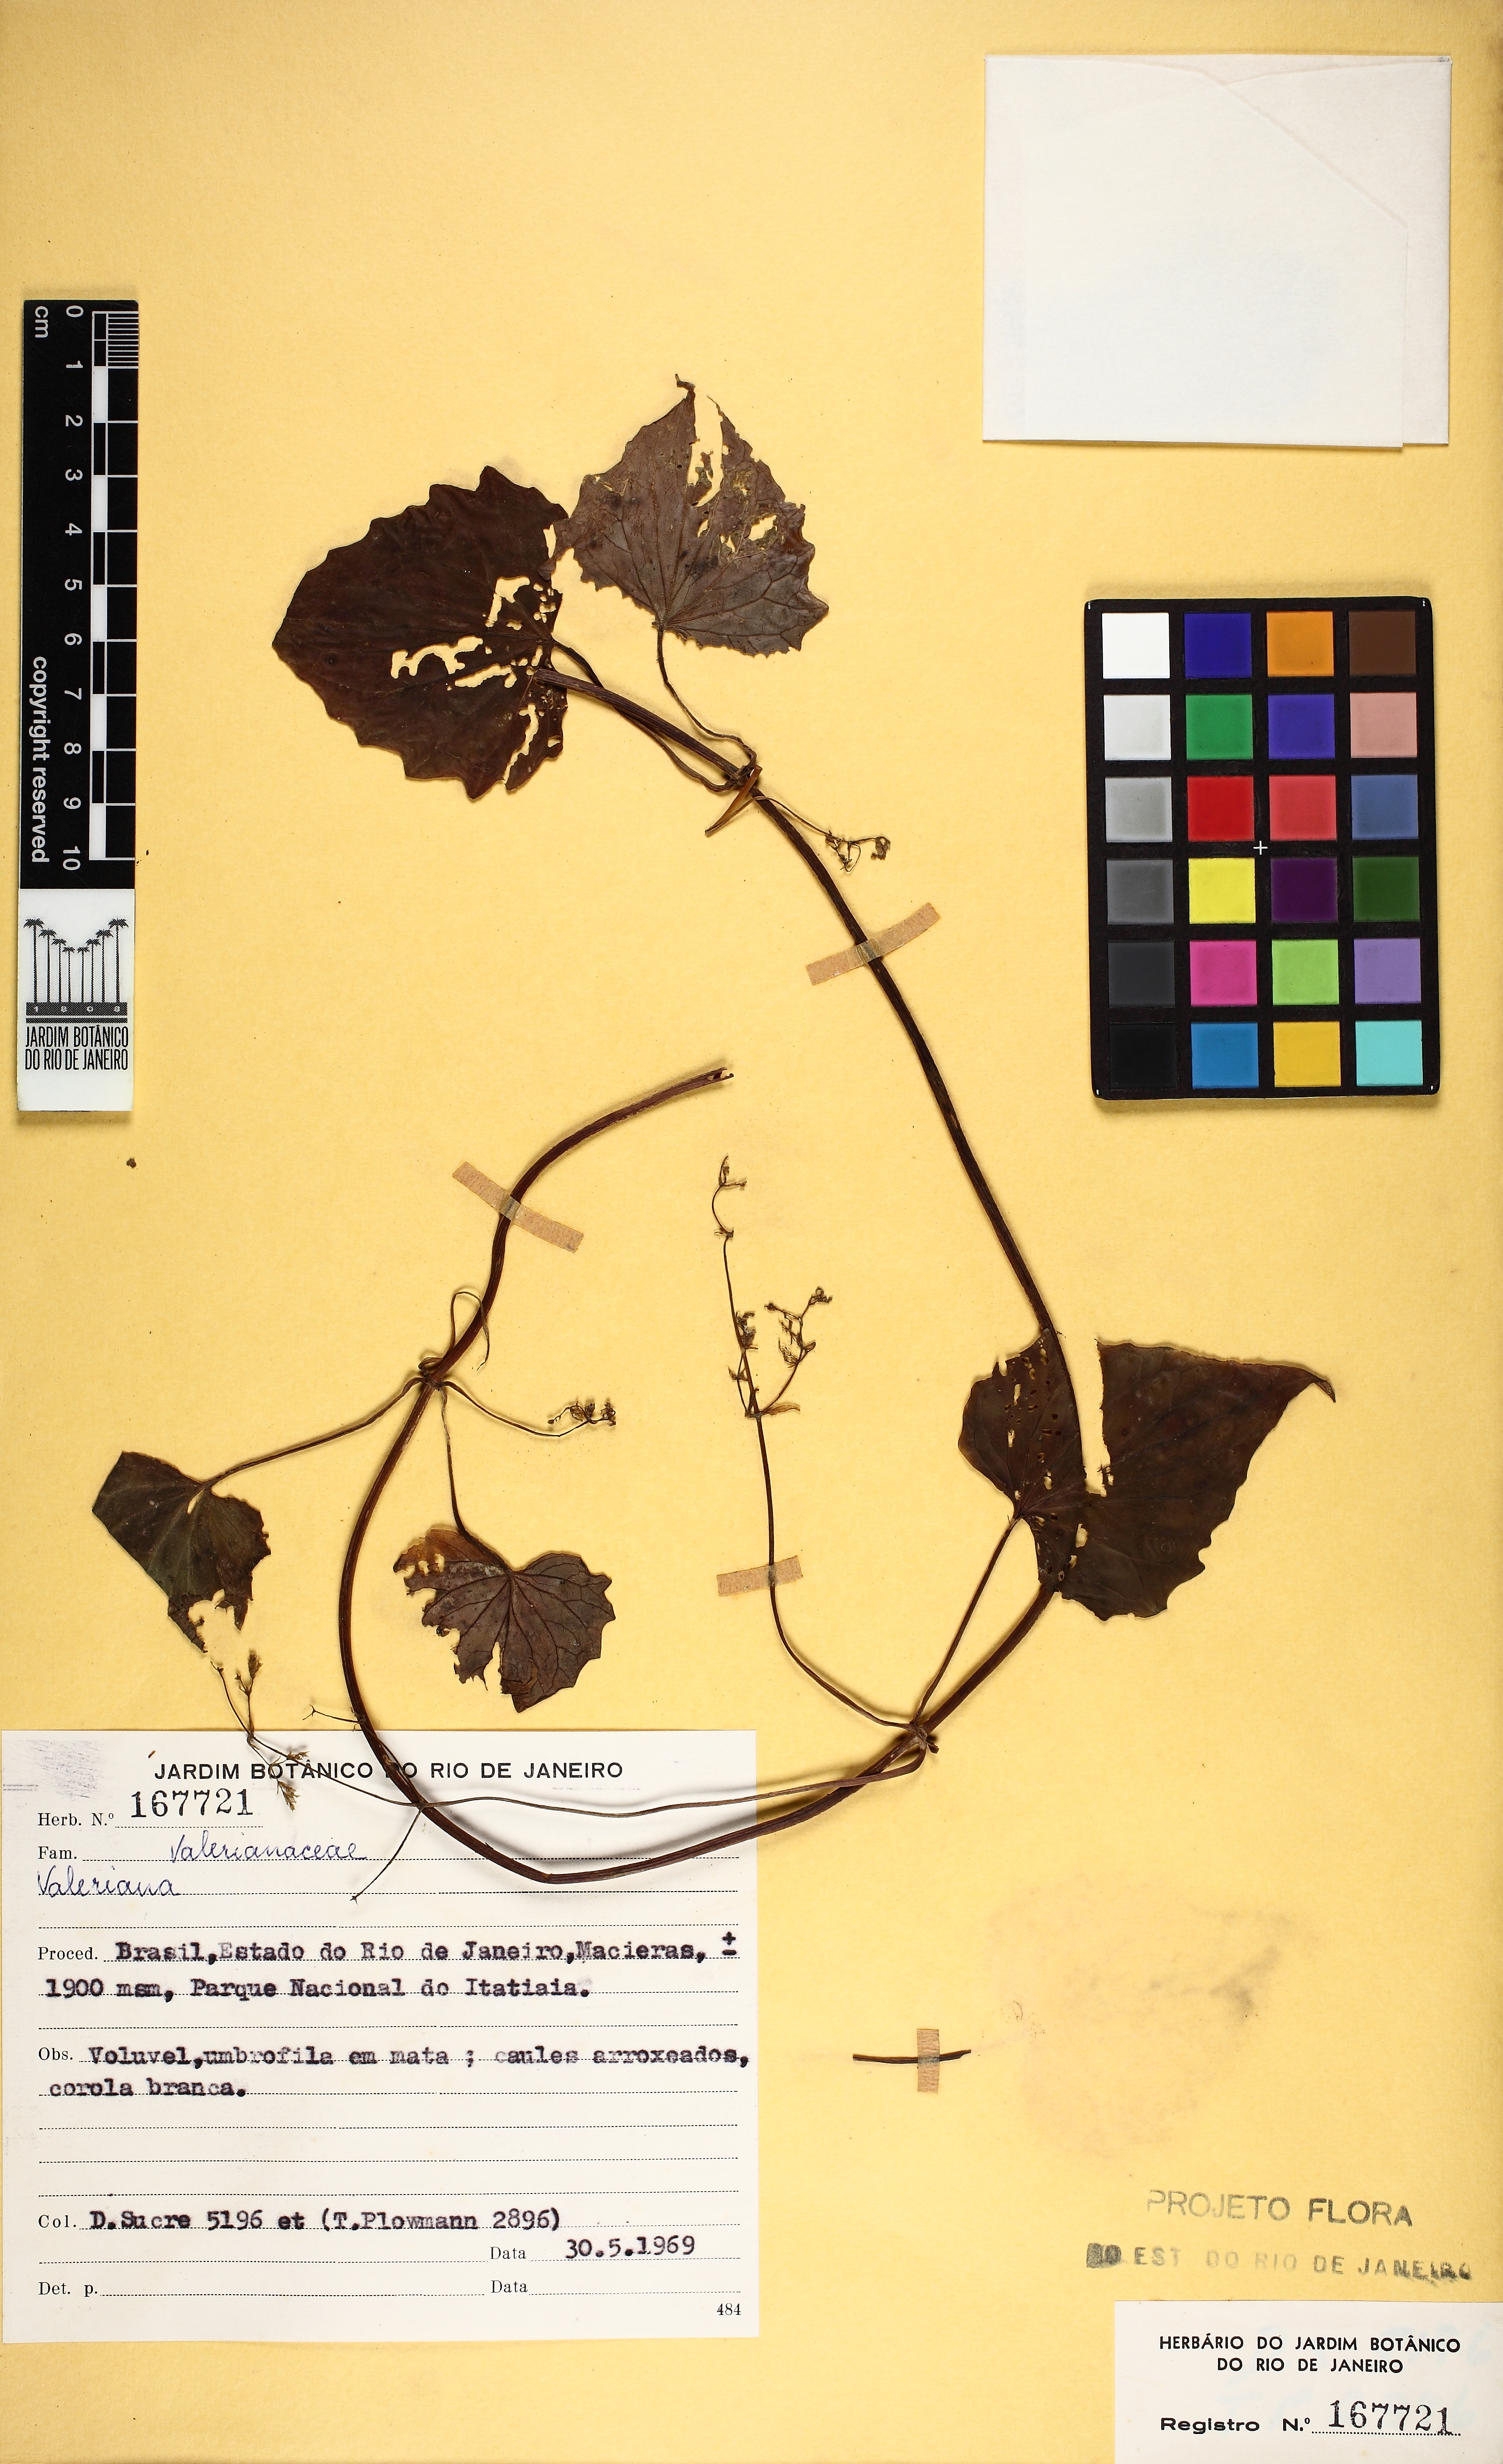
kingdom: Plantae
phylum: Tracheophyta
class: Magnoliopsida
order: Dipsacales
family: Caprifoliaceae
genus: Valeriana
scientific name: Valeriana scandens
